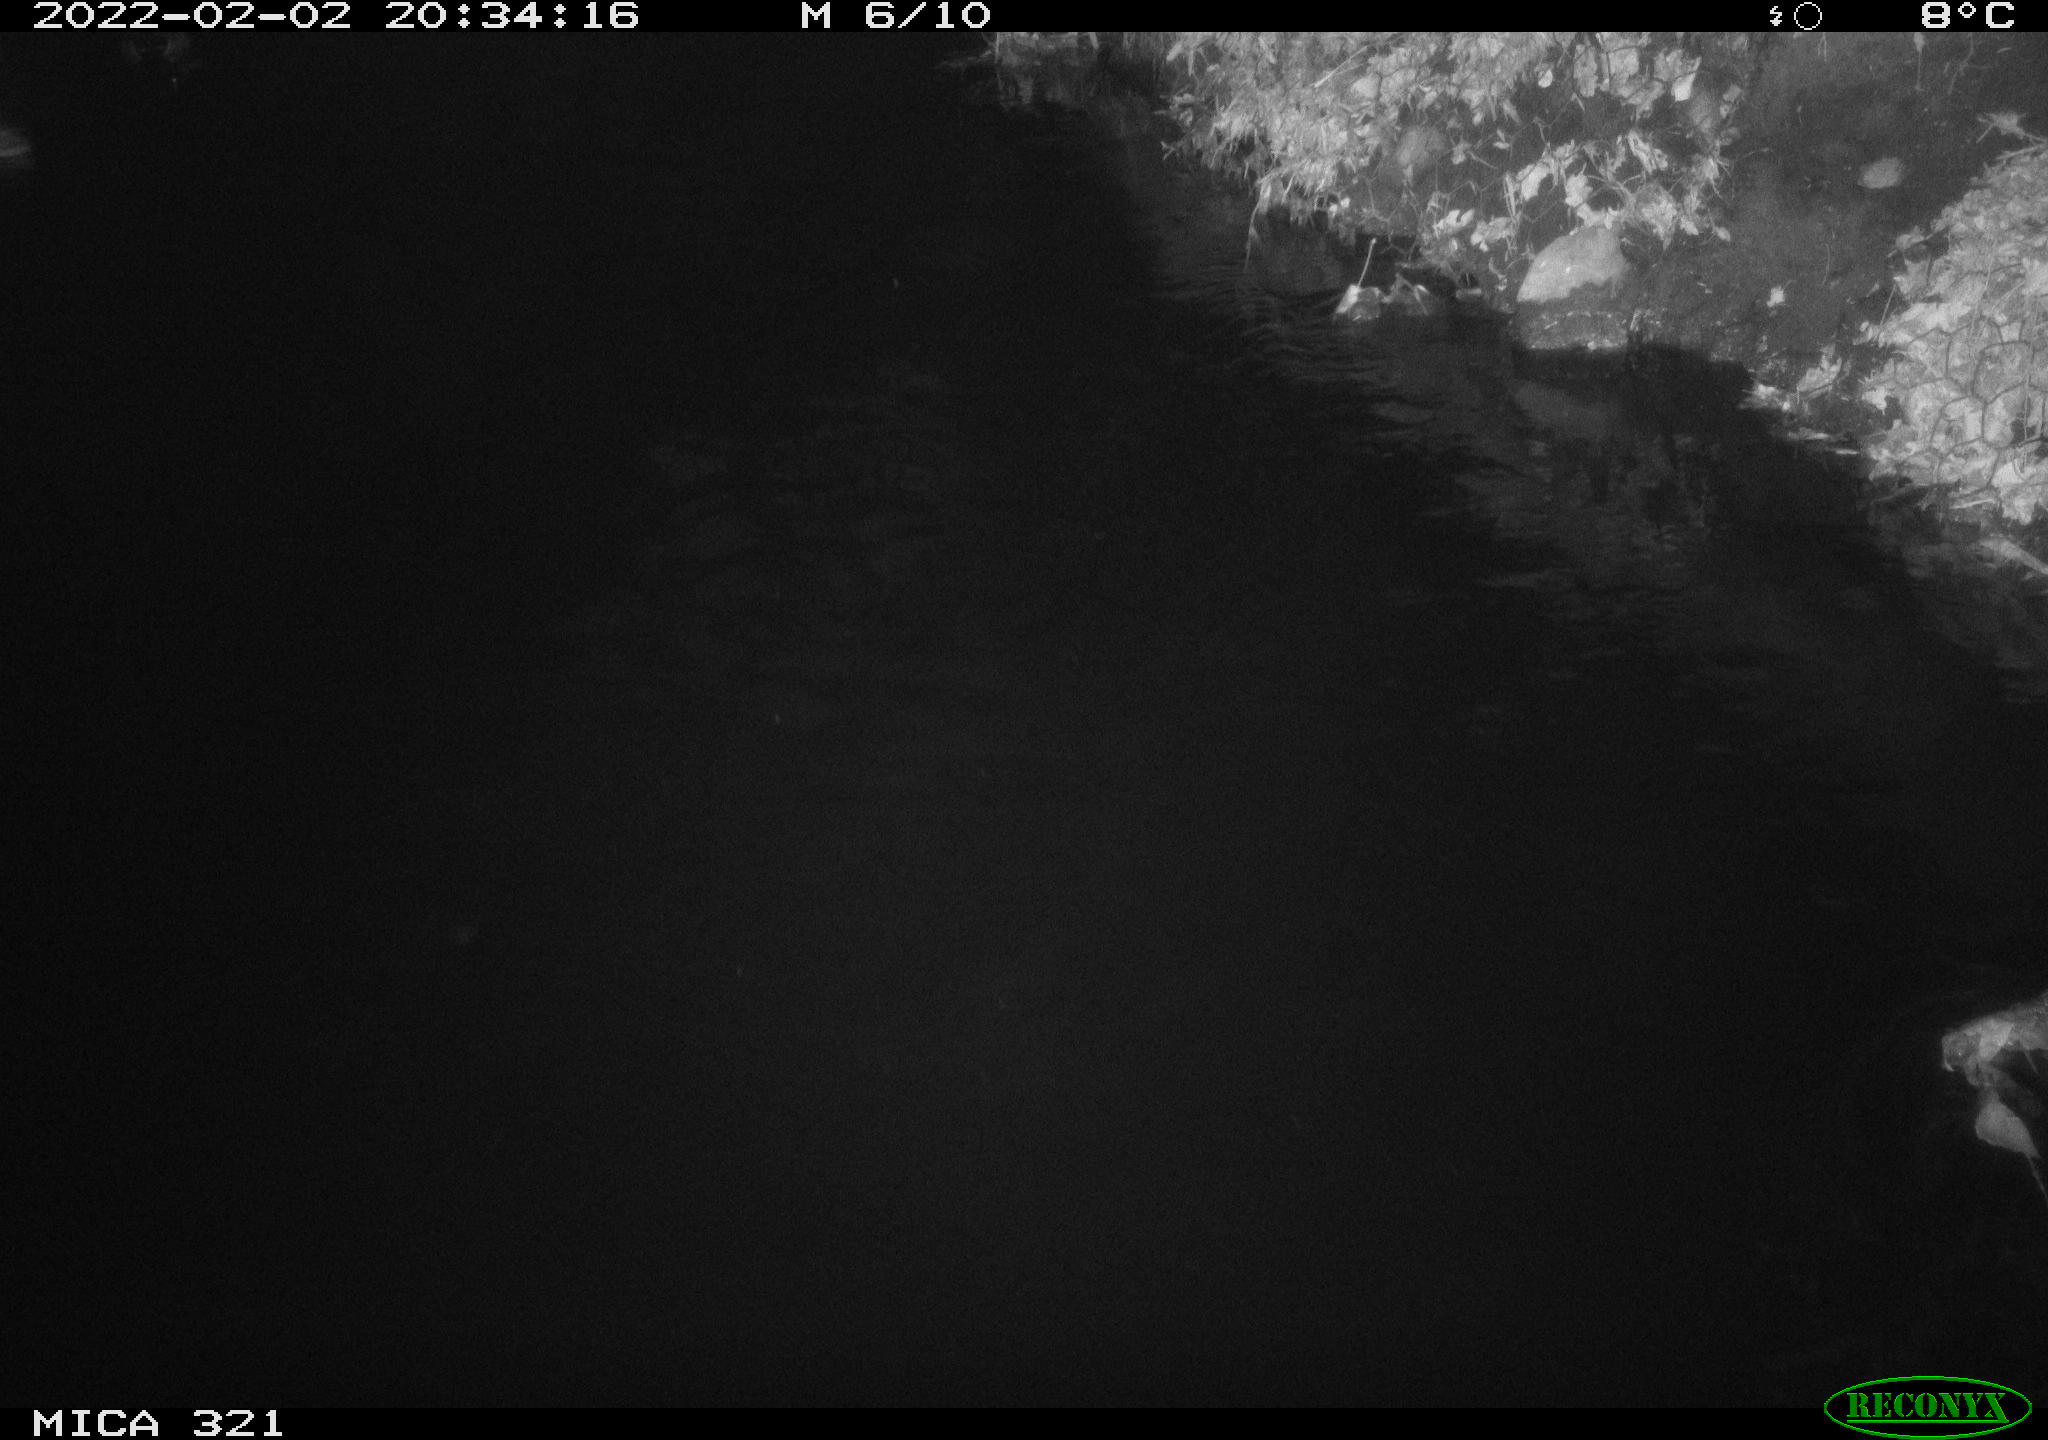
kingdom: Animalia
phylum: Chordata
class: Aves
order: Anseriformes
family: Anatidae
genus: Anas
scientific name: Anas
